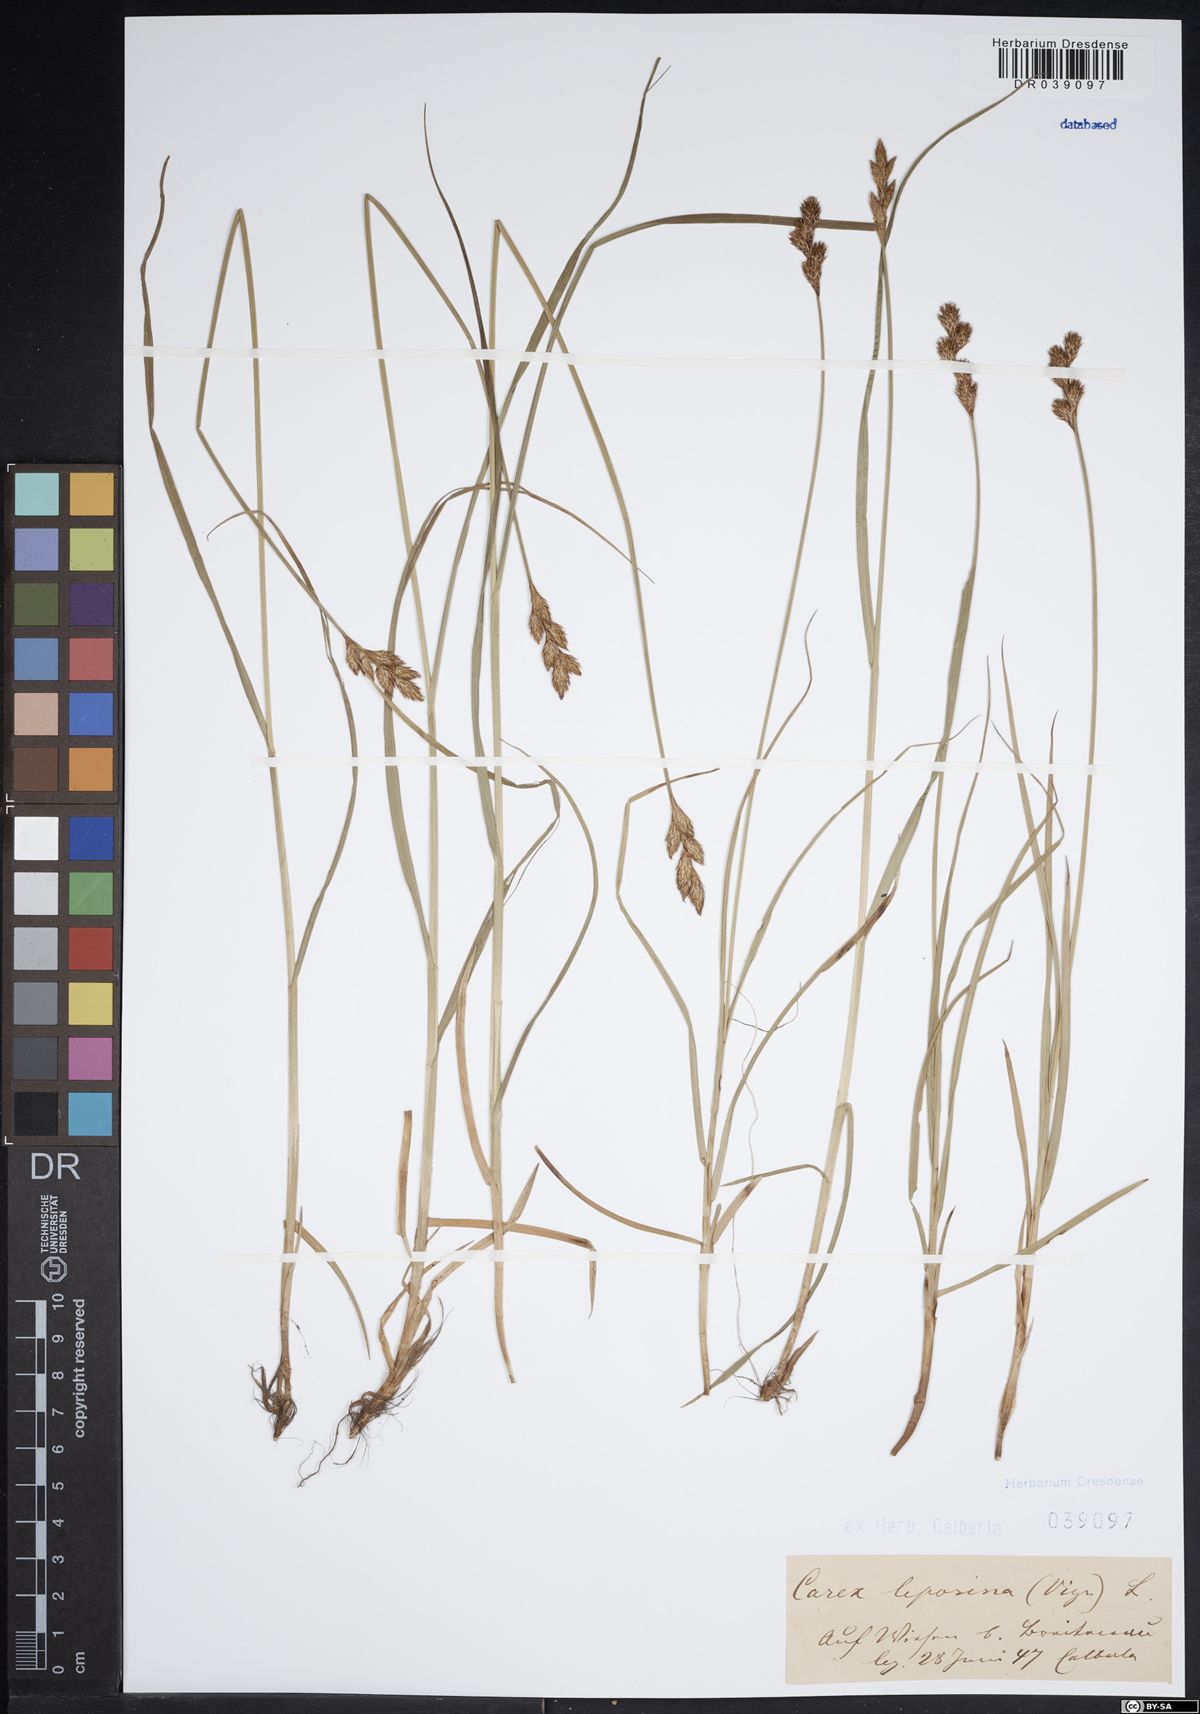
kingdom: Plantae
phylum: Tracheophyta
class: Liliopsida
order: Poales
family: Cyperaceae
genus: Carex
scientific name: Carex leporina
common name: Oval sedge
